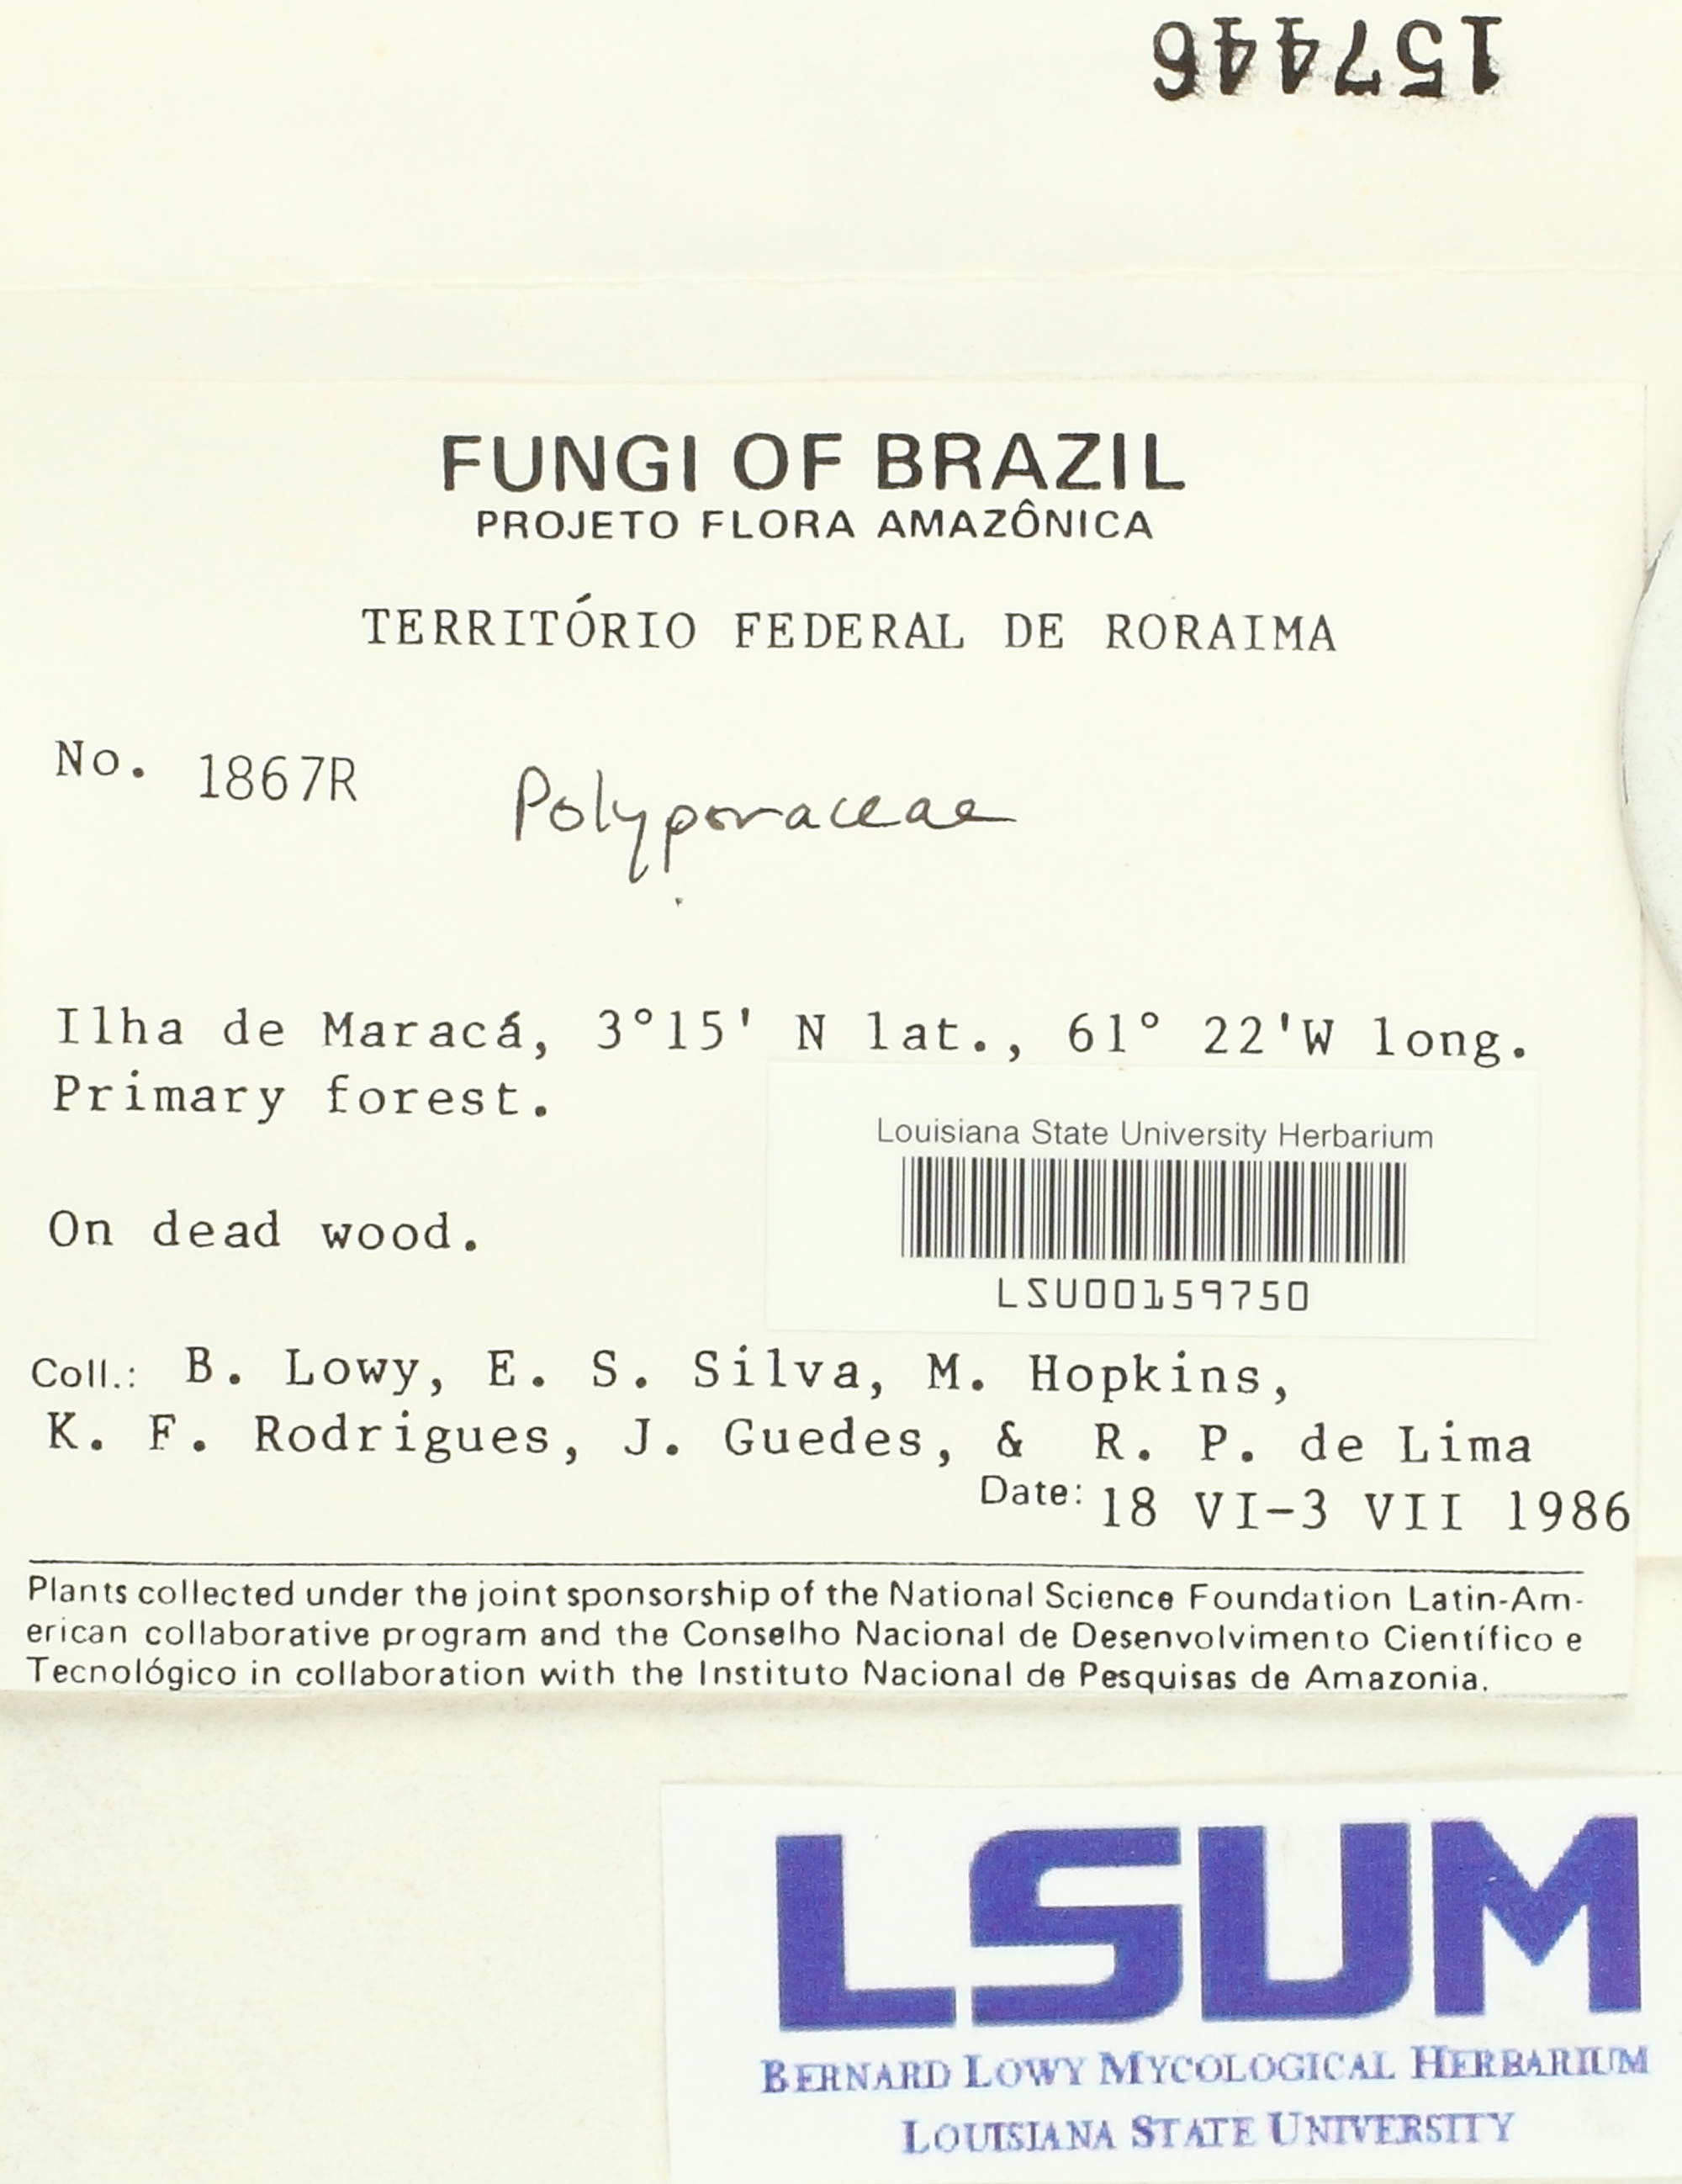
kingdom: Fungi
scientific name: Fungi
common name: Fungi
